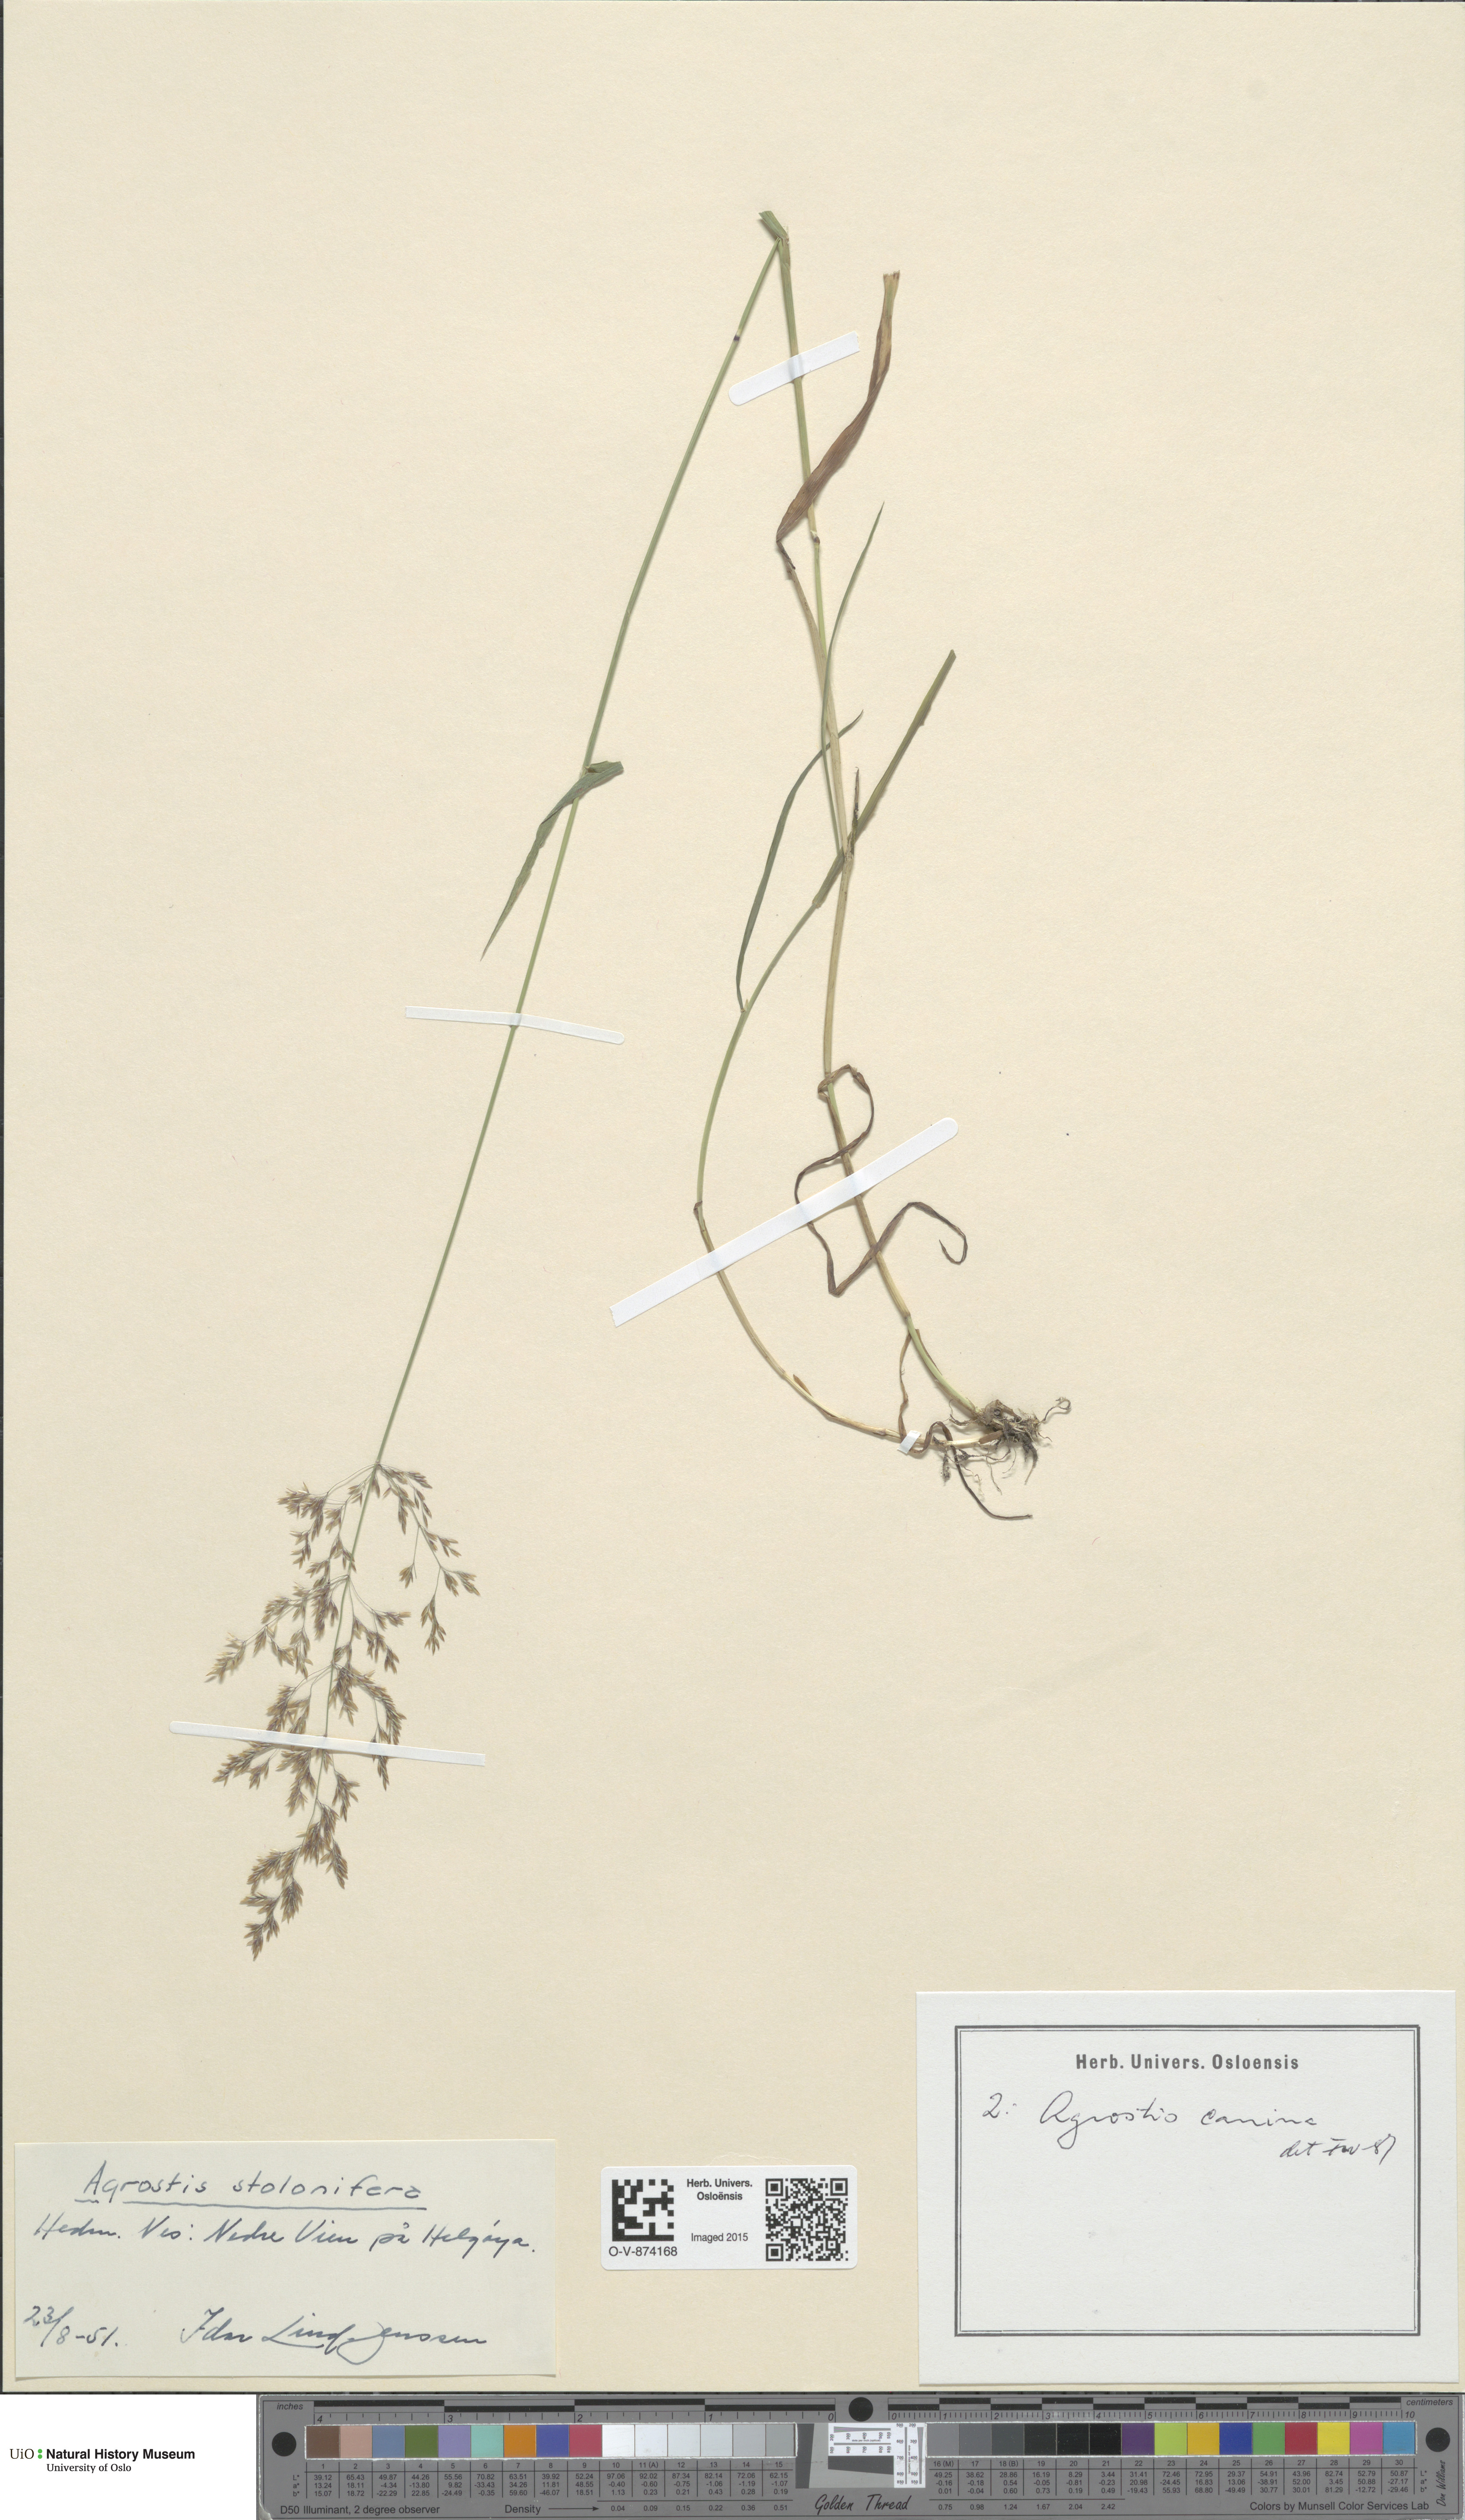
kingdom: Plantae
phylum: Tracheophyta
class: Liliopsida
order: Poales
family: Poaceae
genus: Agrostis
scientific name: Agrostis canina
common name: Velvet bent
